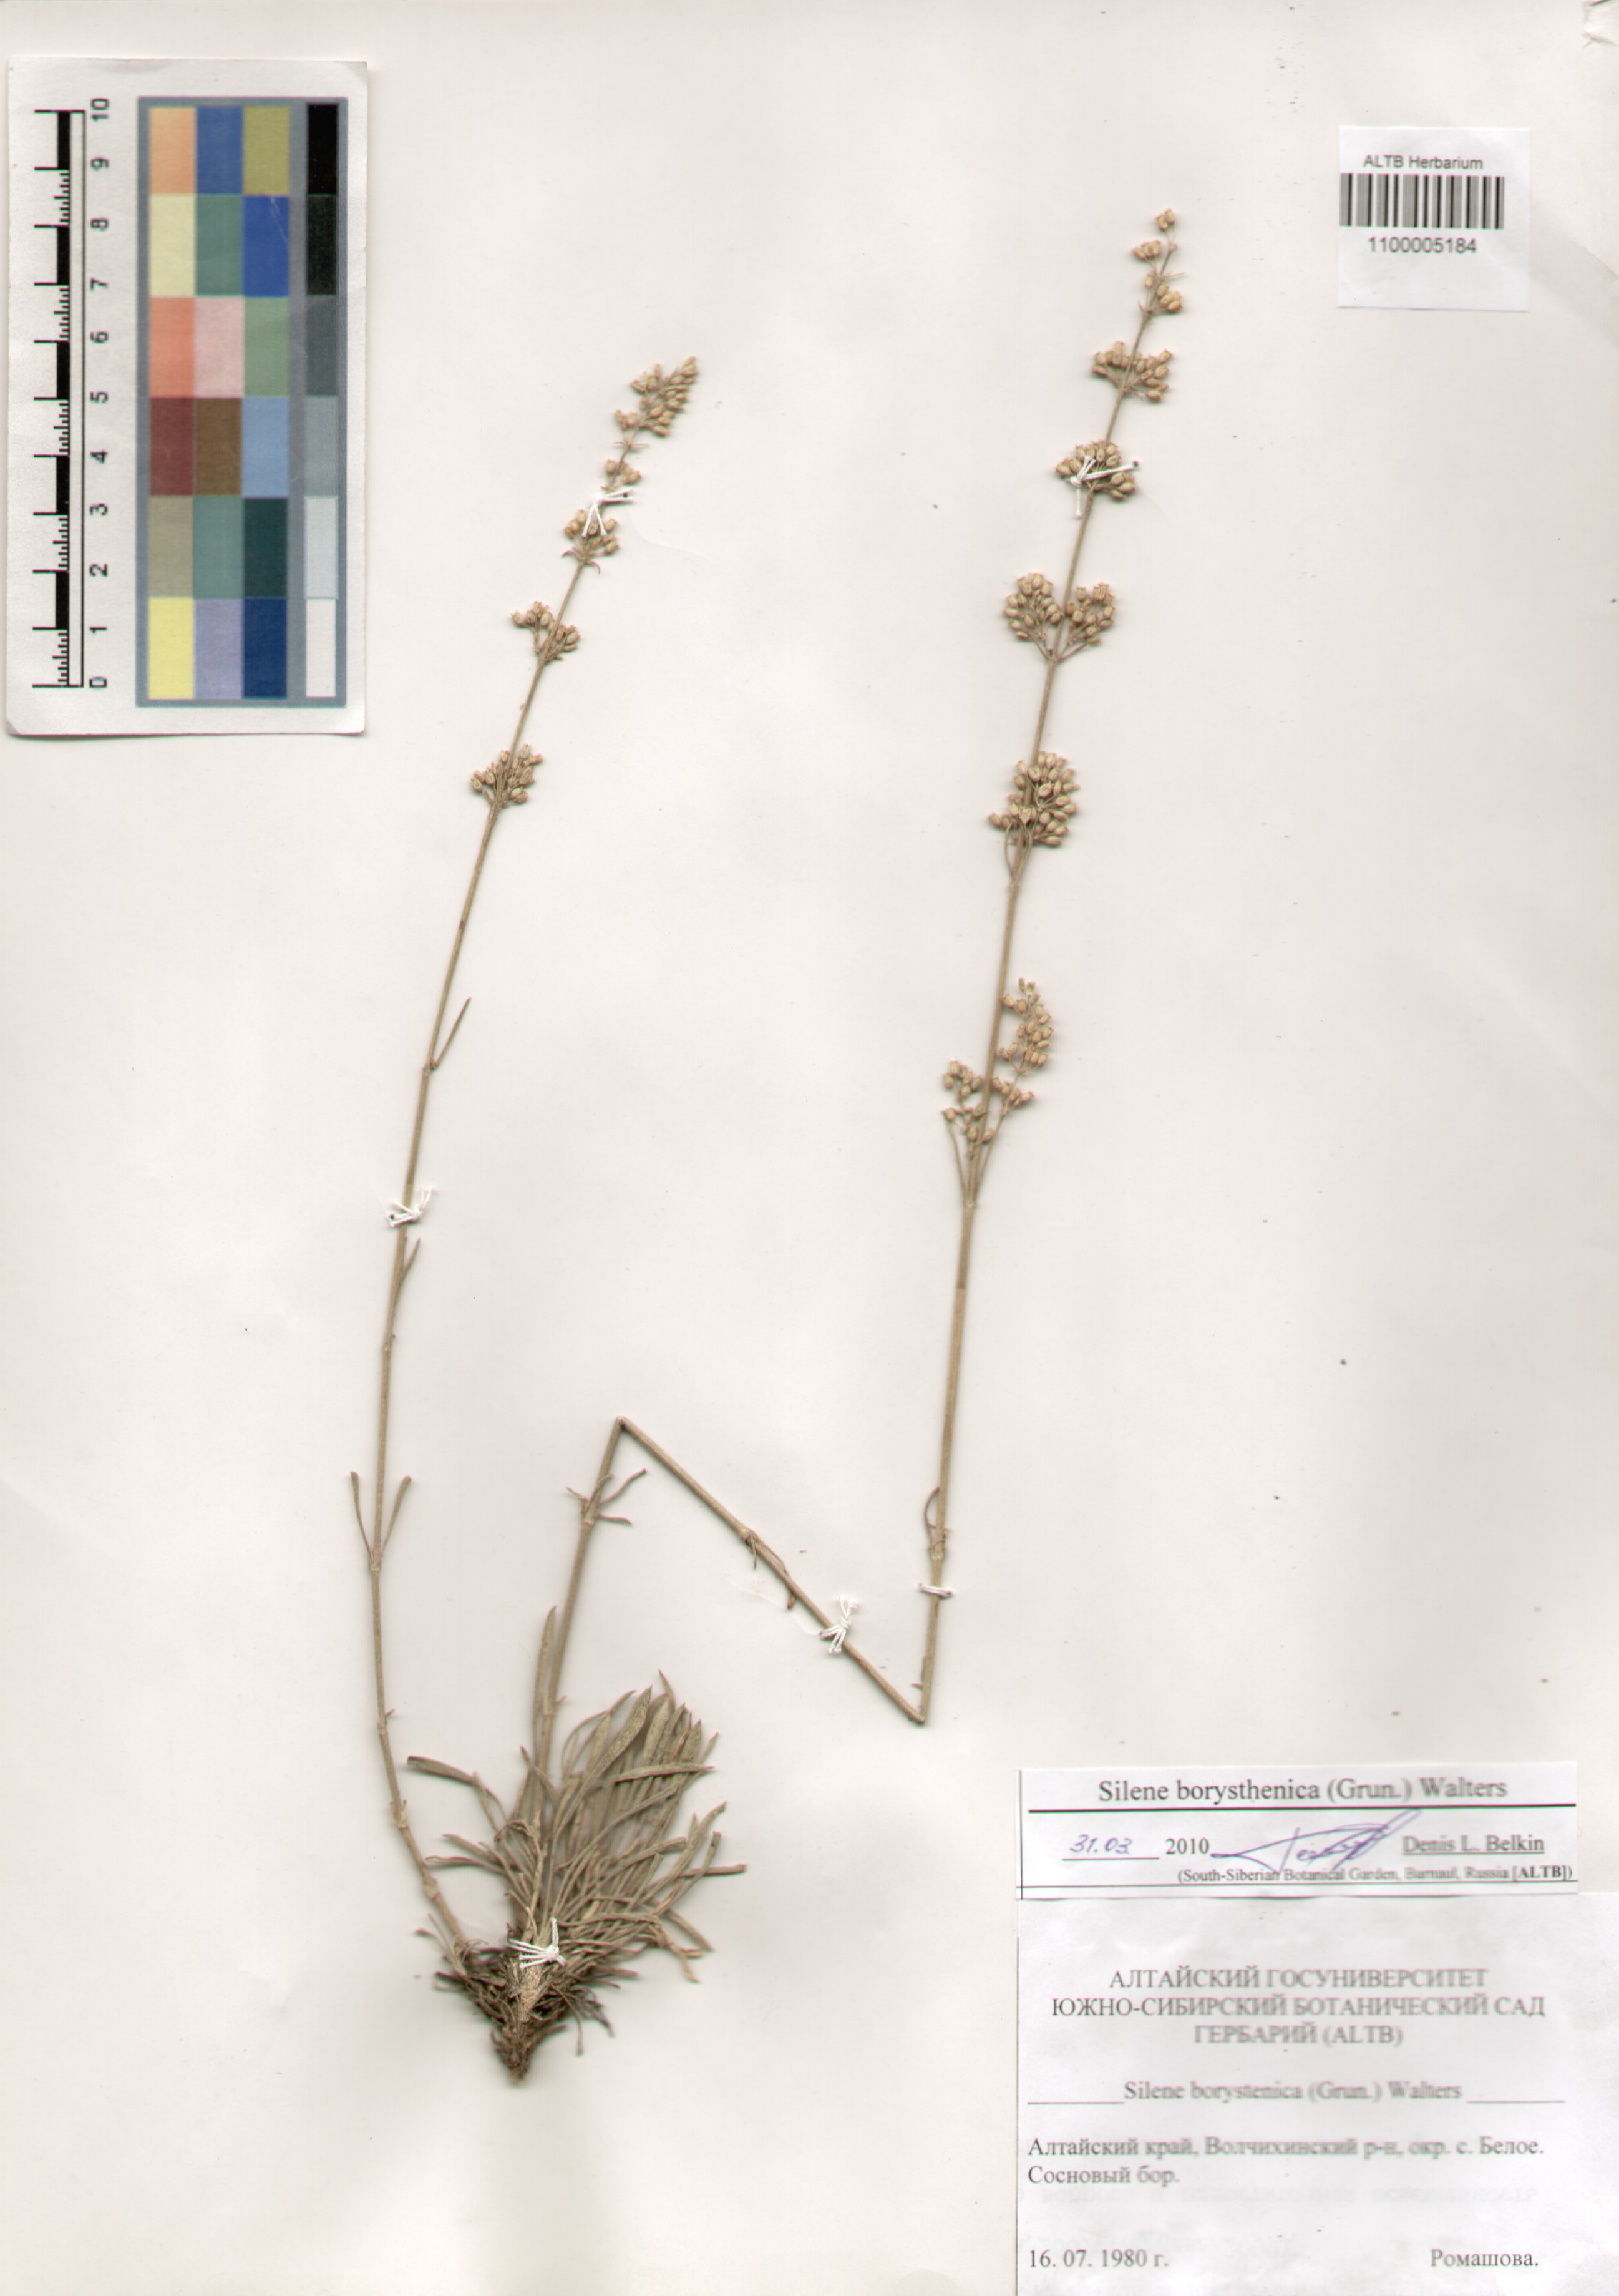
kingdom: Plantae
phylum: Tracheophyta
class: Magnoliopsida
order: Caryophyllales
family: Caryophyllaceae
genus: Silene
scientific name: Silene borysthenica
